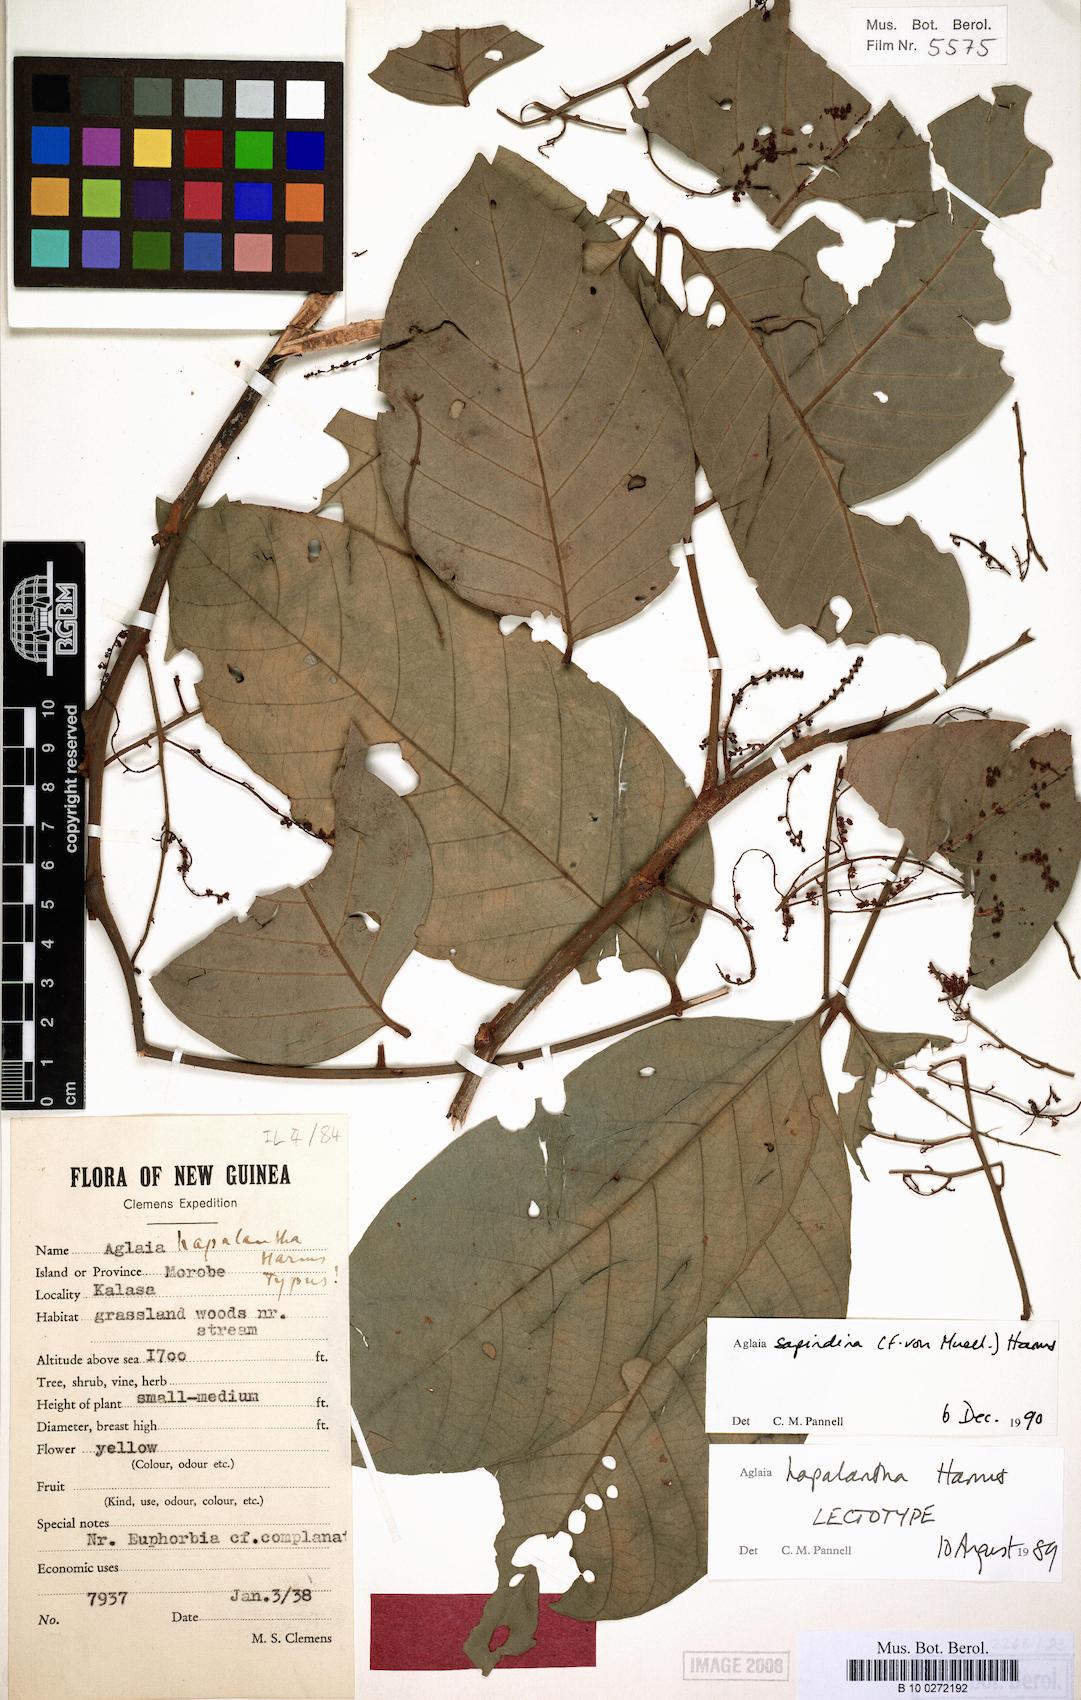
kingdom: Plantae
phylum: Tracheophyta
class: Magnoliopsida
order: Sapindales
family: Meliaceae
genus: Aglaia
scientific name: Aglaia sapindina
